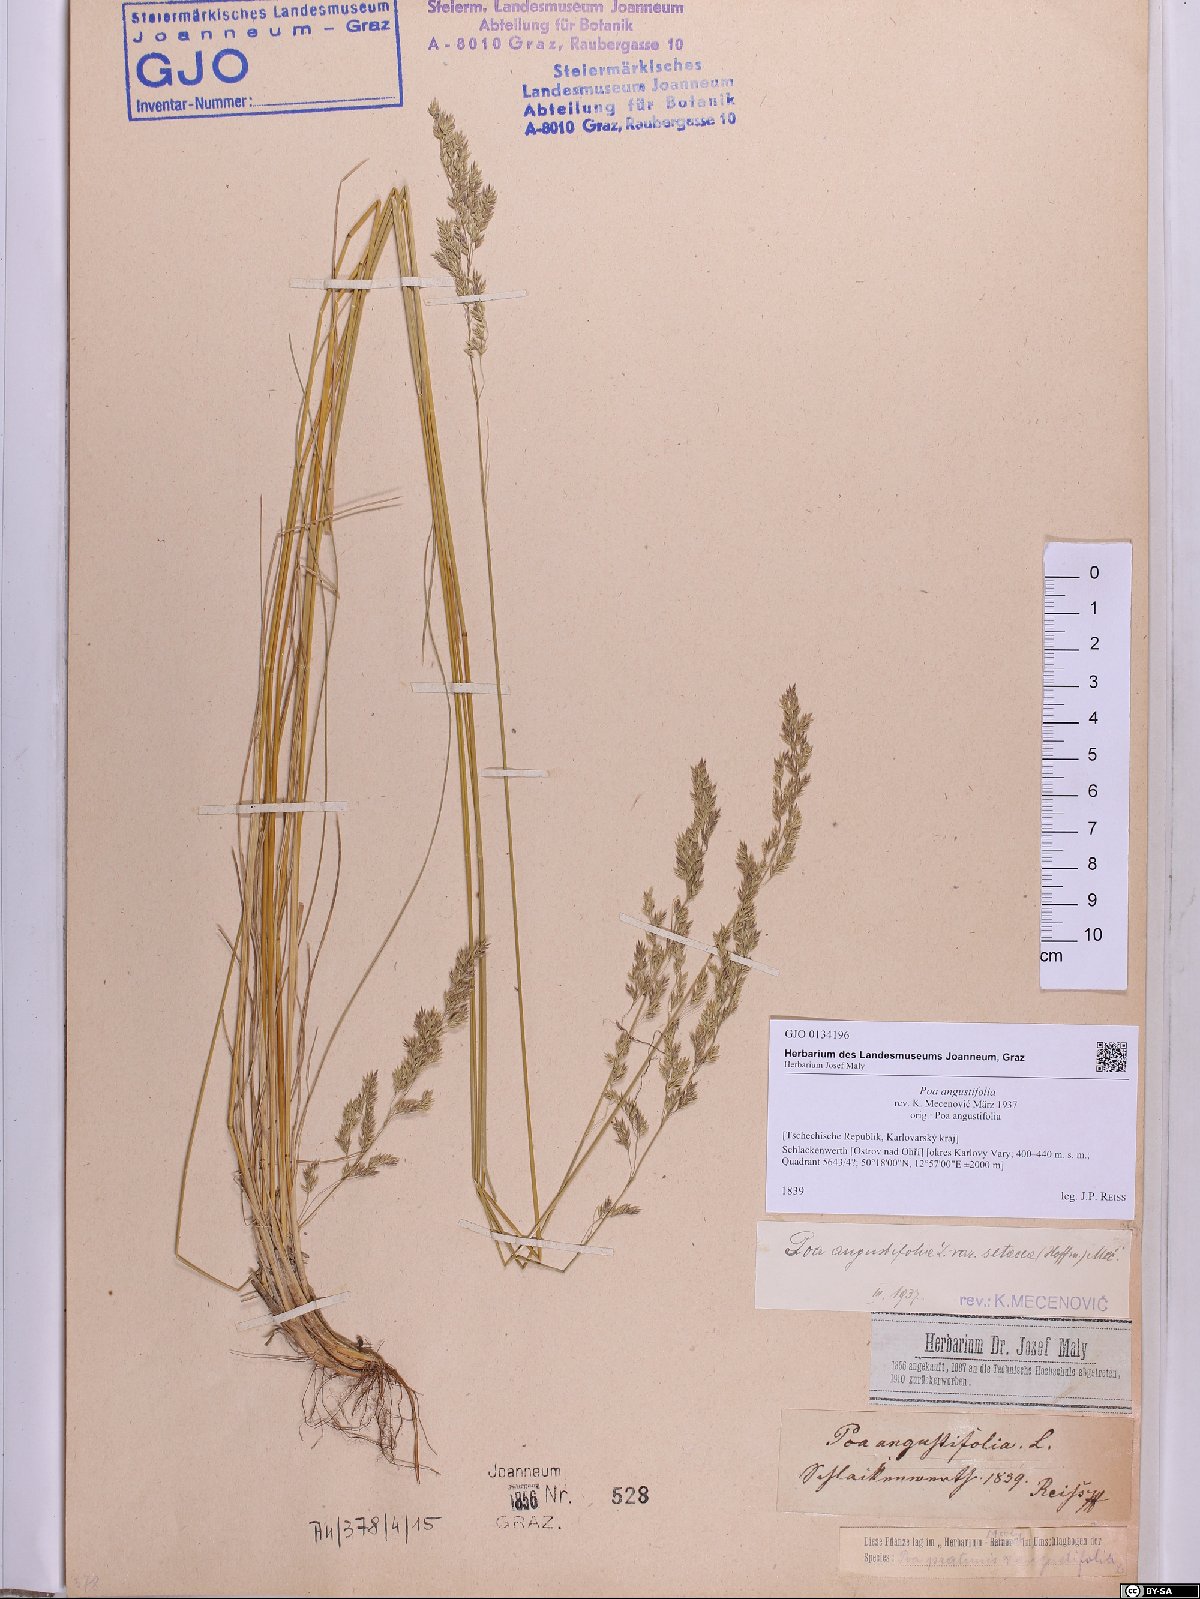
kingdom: Plantae
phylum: Tracheophyta
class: Liliopsida
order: Poales
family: Poaceae
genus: Poa
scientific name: Poa angustifolia
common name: Narrow-leaved meadow-grass
